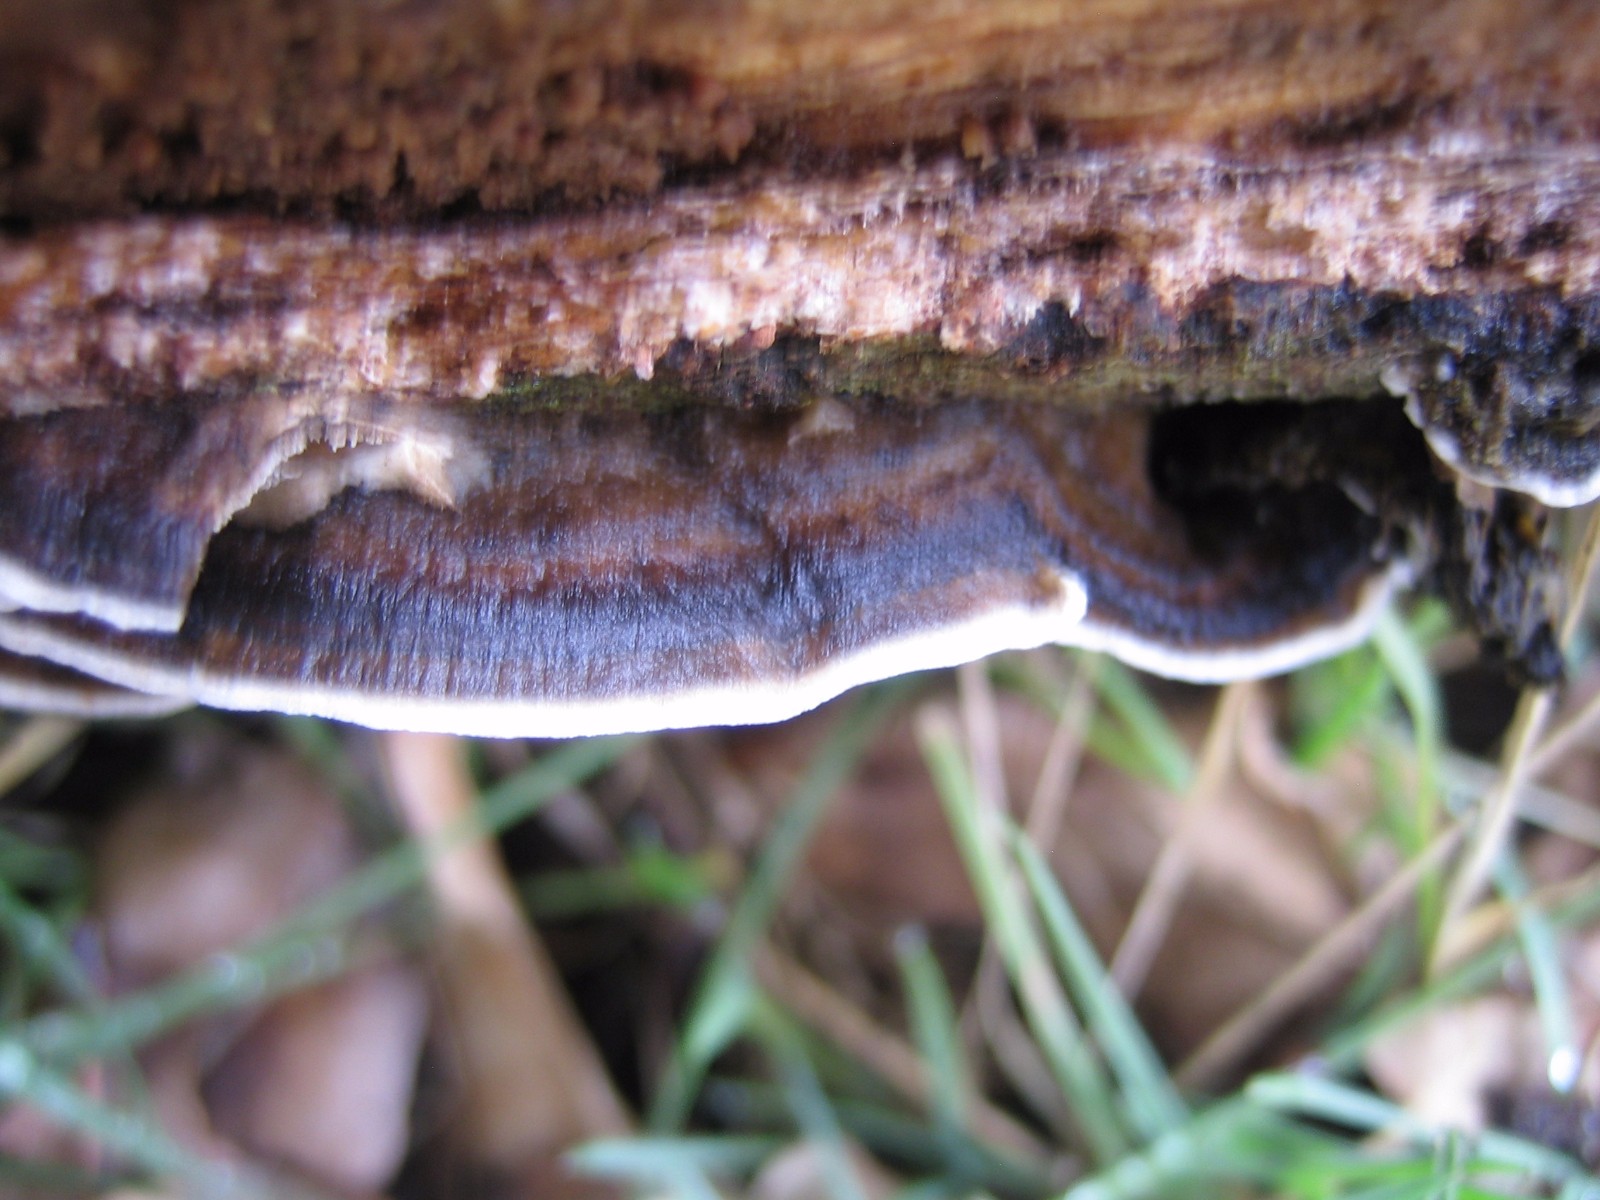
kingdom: Fungi
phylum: Basidiomycota
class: Agaricomycetes
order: Polyporales
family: Phanerochaetaceae
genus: Bjerkandera
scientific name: Bjerkandera adusta
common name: sveden sodporesvamp
